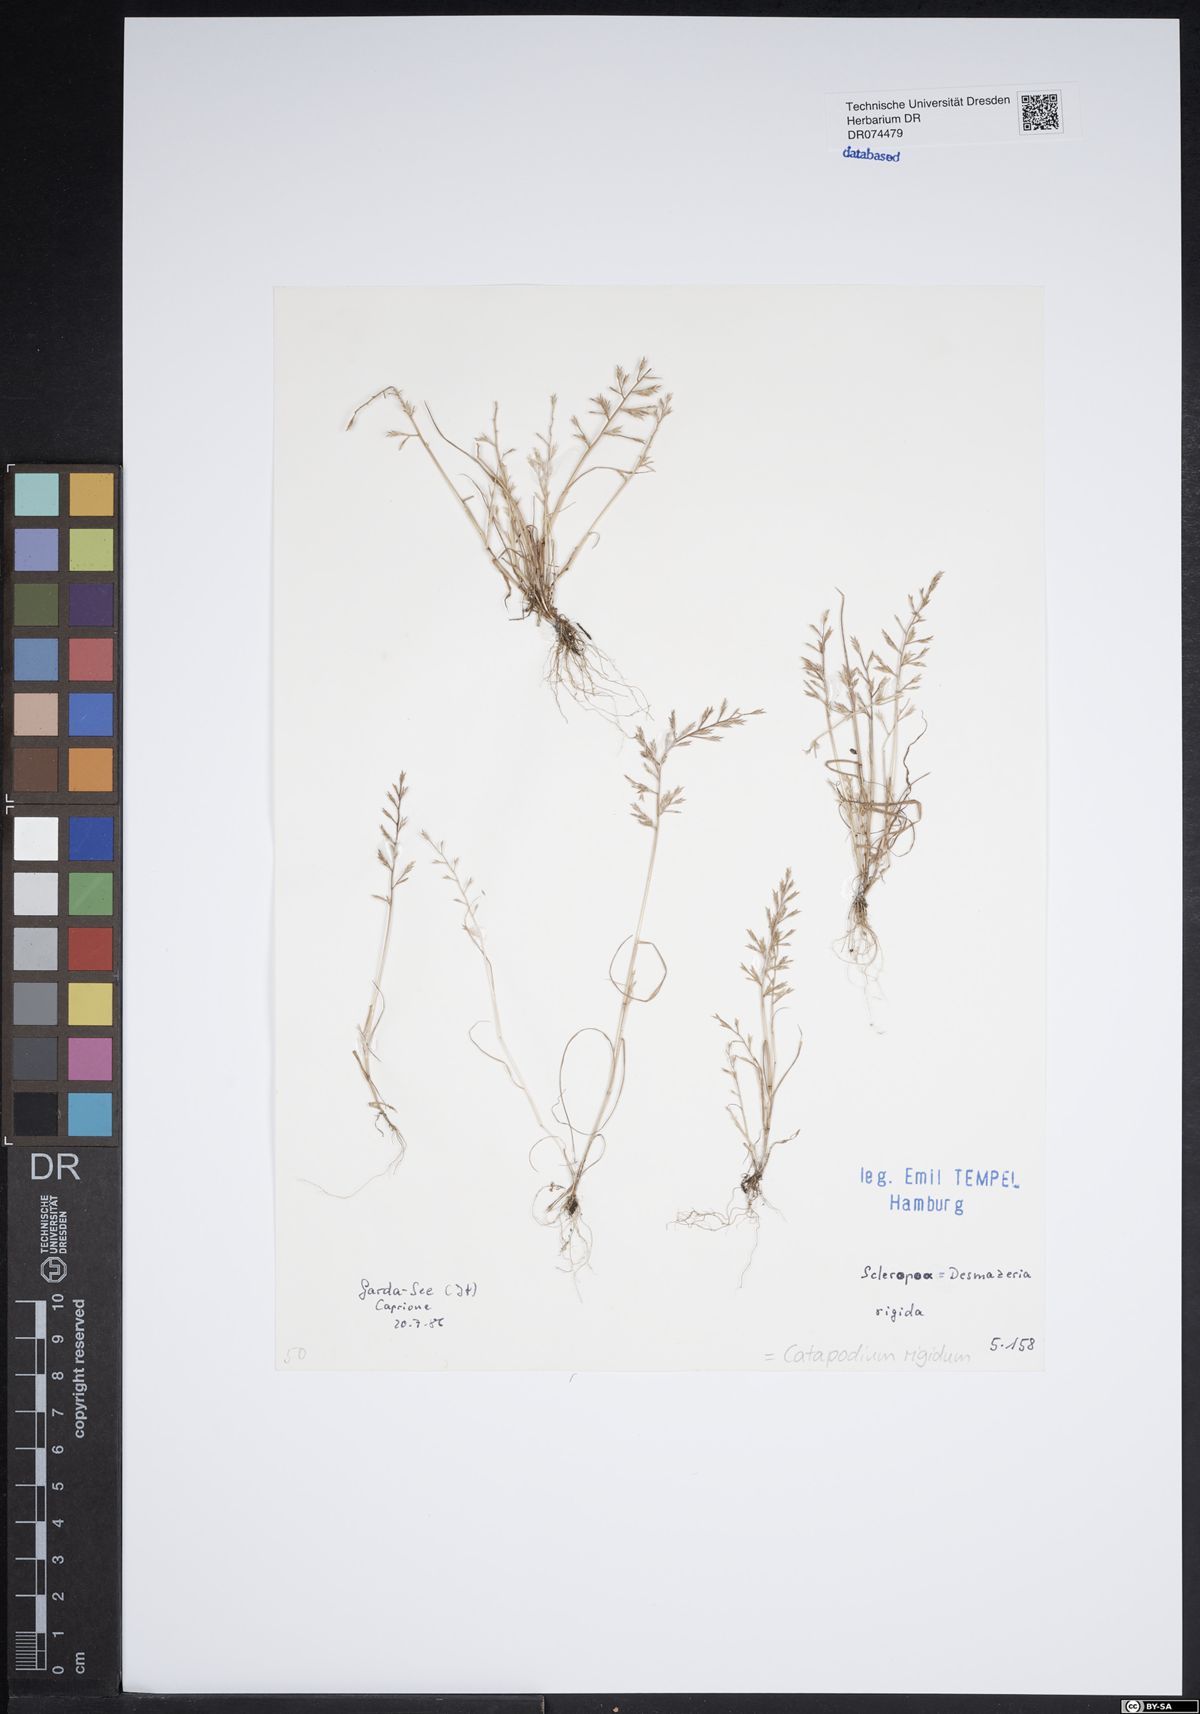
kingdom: Plantae
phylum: Tracheophyta
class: Liliopsida
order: Poales
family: Poaceae
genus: Catapodium
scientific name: Catapodium rigidum
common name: Fern-grass
